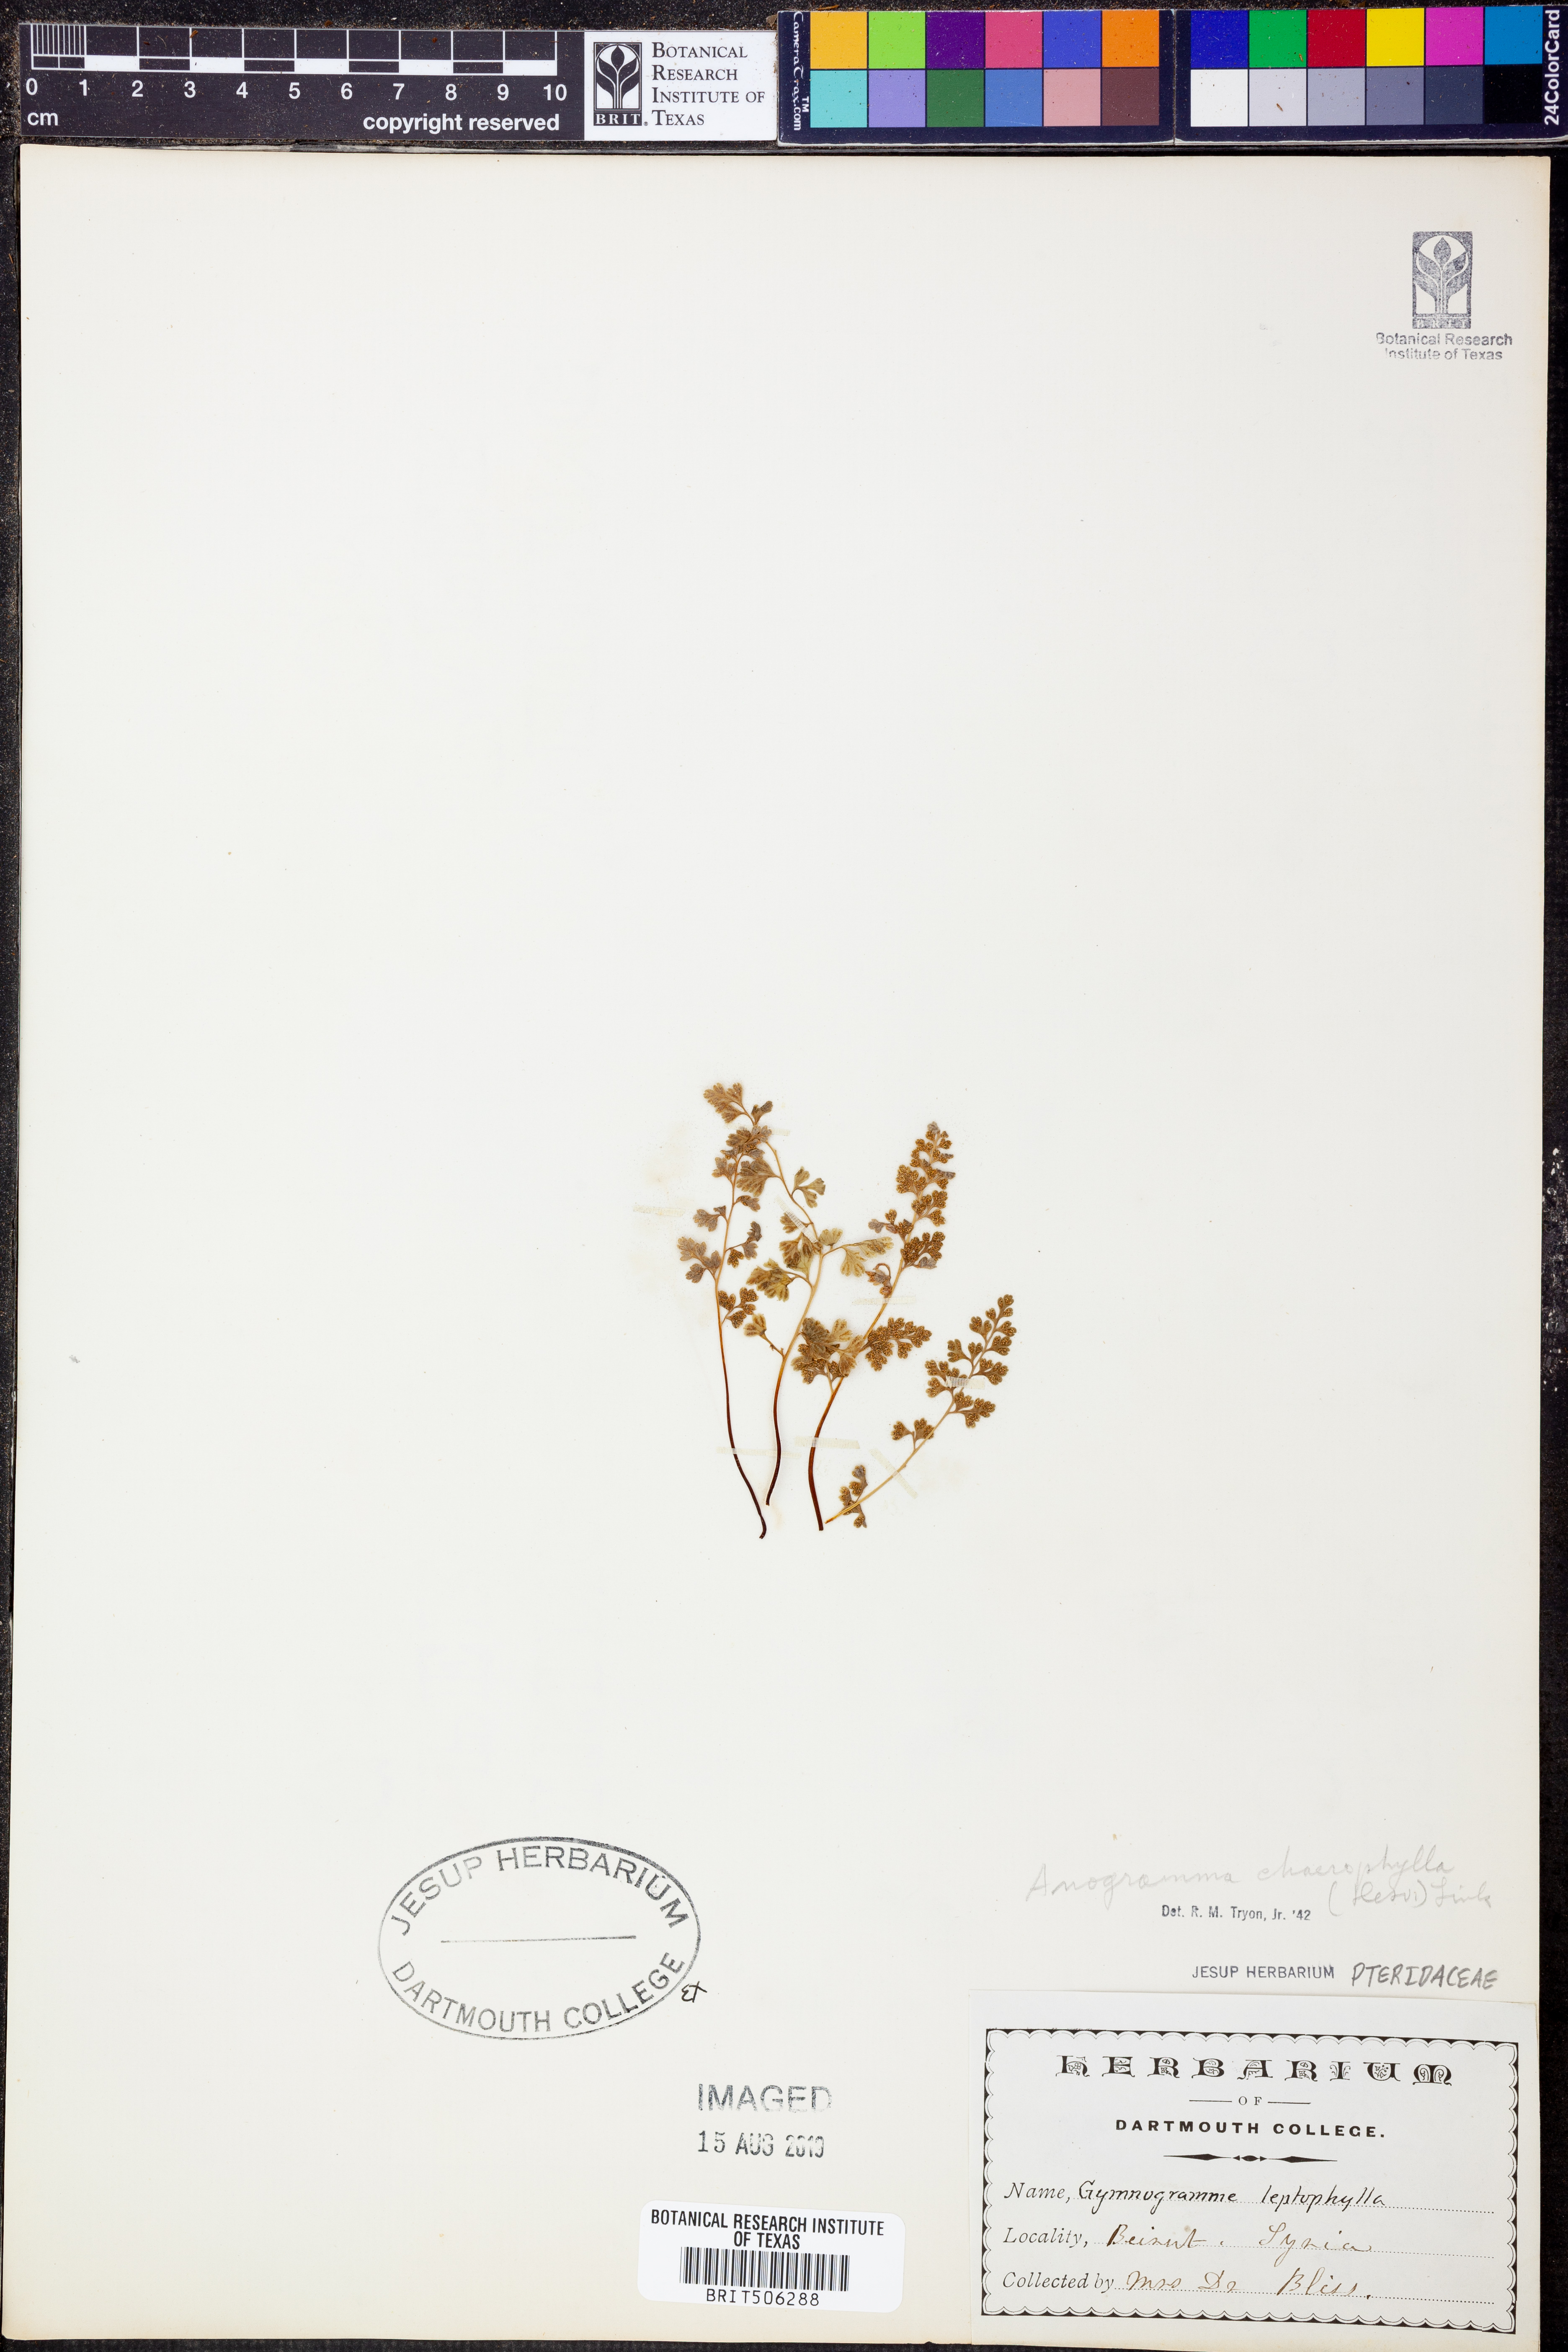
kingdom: Plantae
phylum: Tracheophyta
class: Polypodiopsida
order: Polypodiales
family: Pteridaceae
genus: Gastoniella
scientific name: Gastoniella chaerophylla
